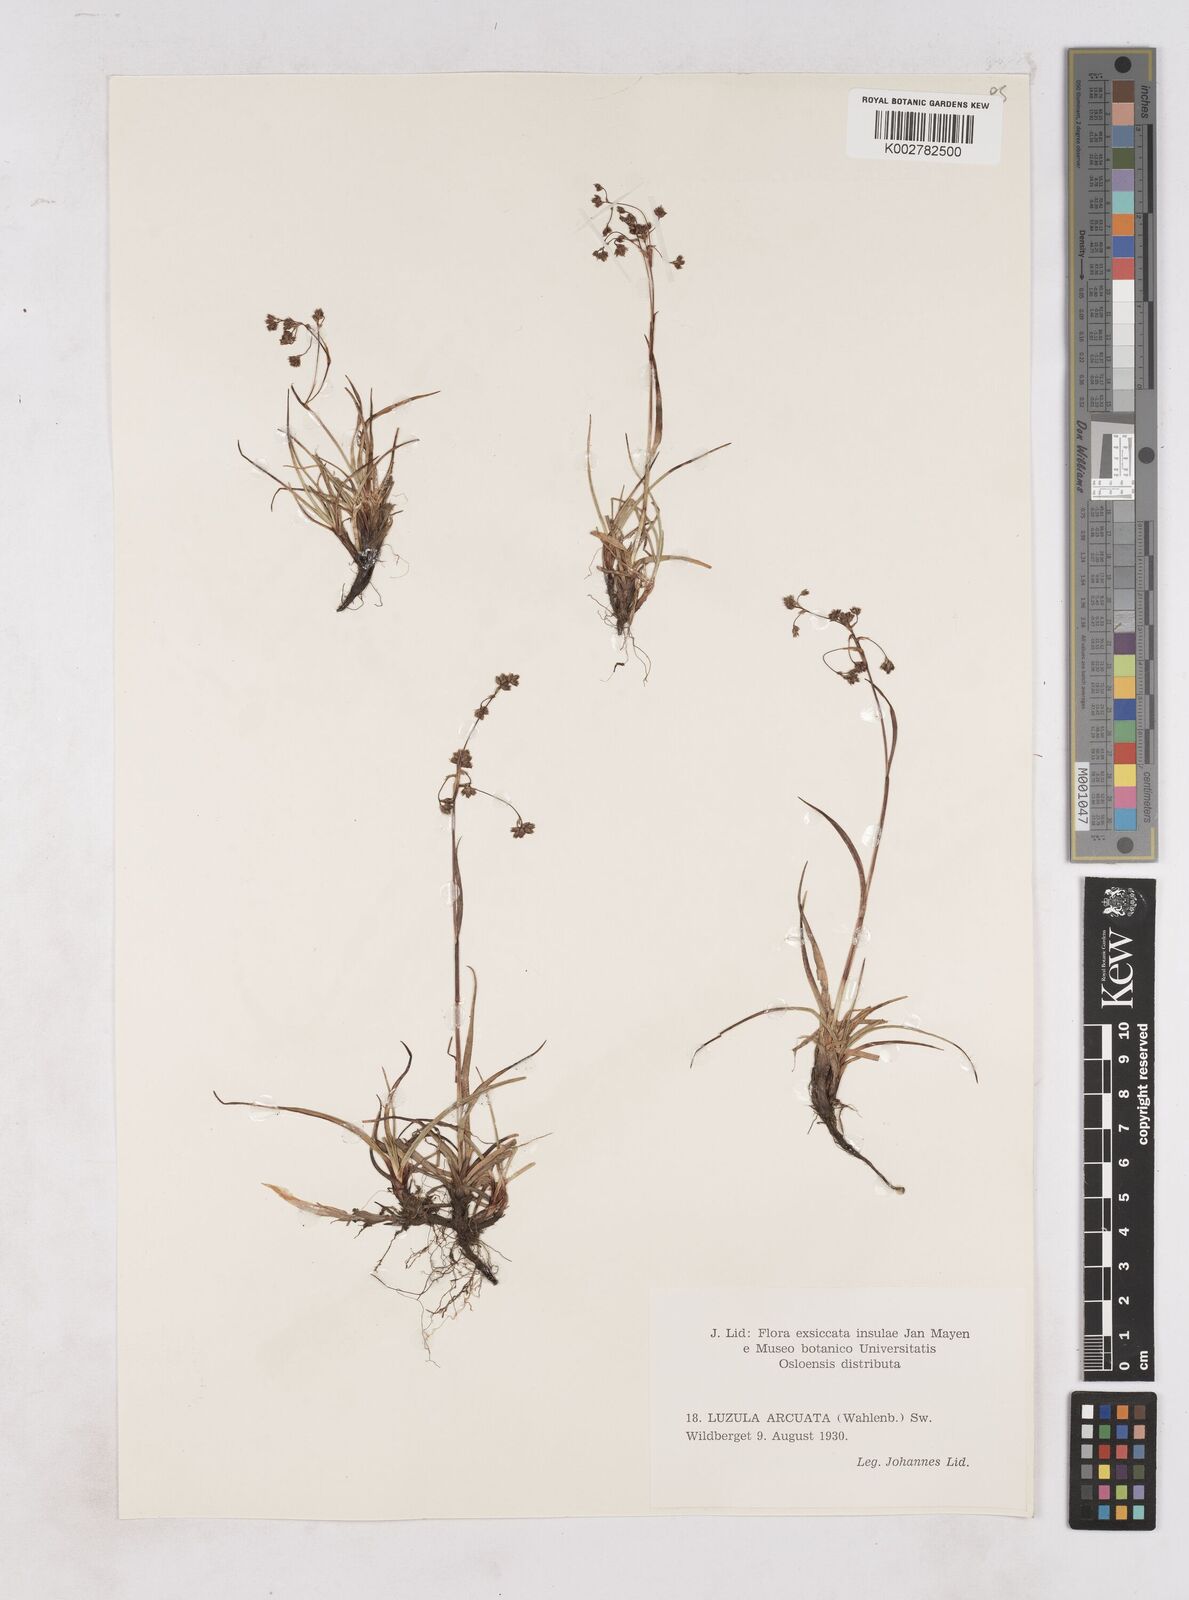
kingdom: Plantae
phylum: Tracheophyta
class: Liliopsida
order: Poales
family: Juncaceae
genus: Luzula
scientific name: Luzula arcuata
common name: Curved wood-rush
